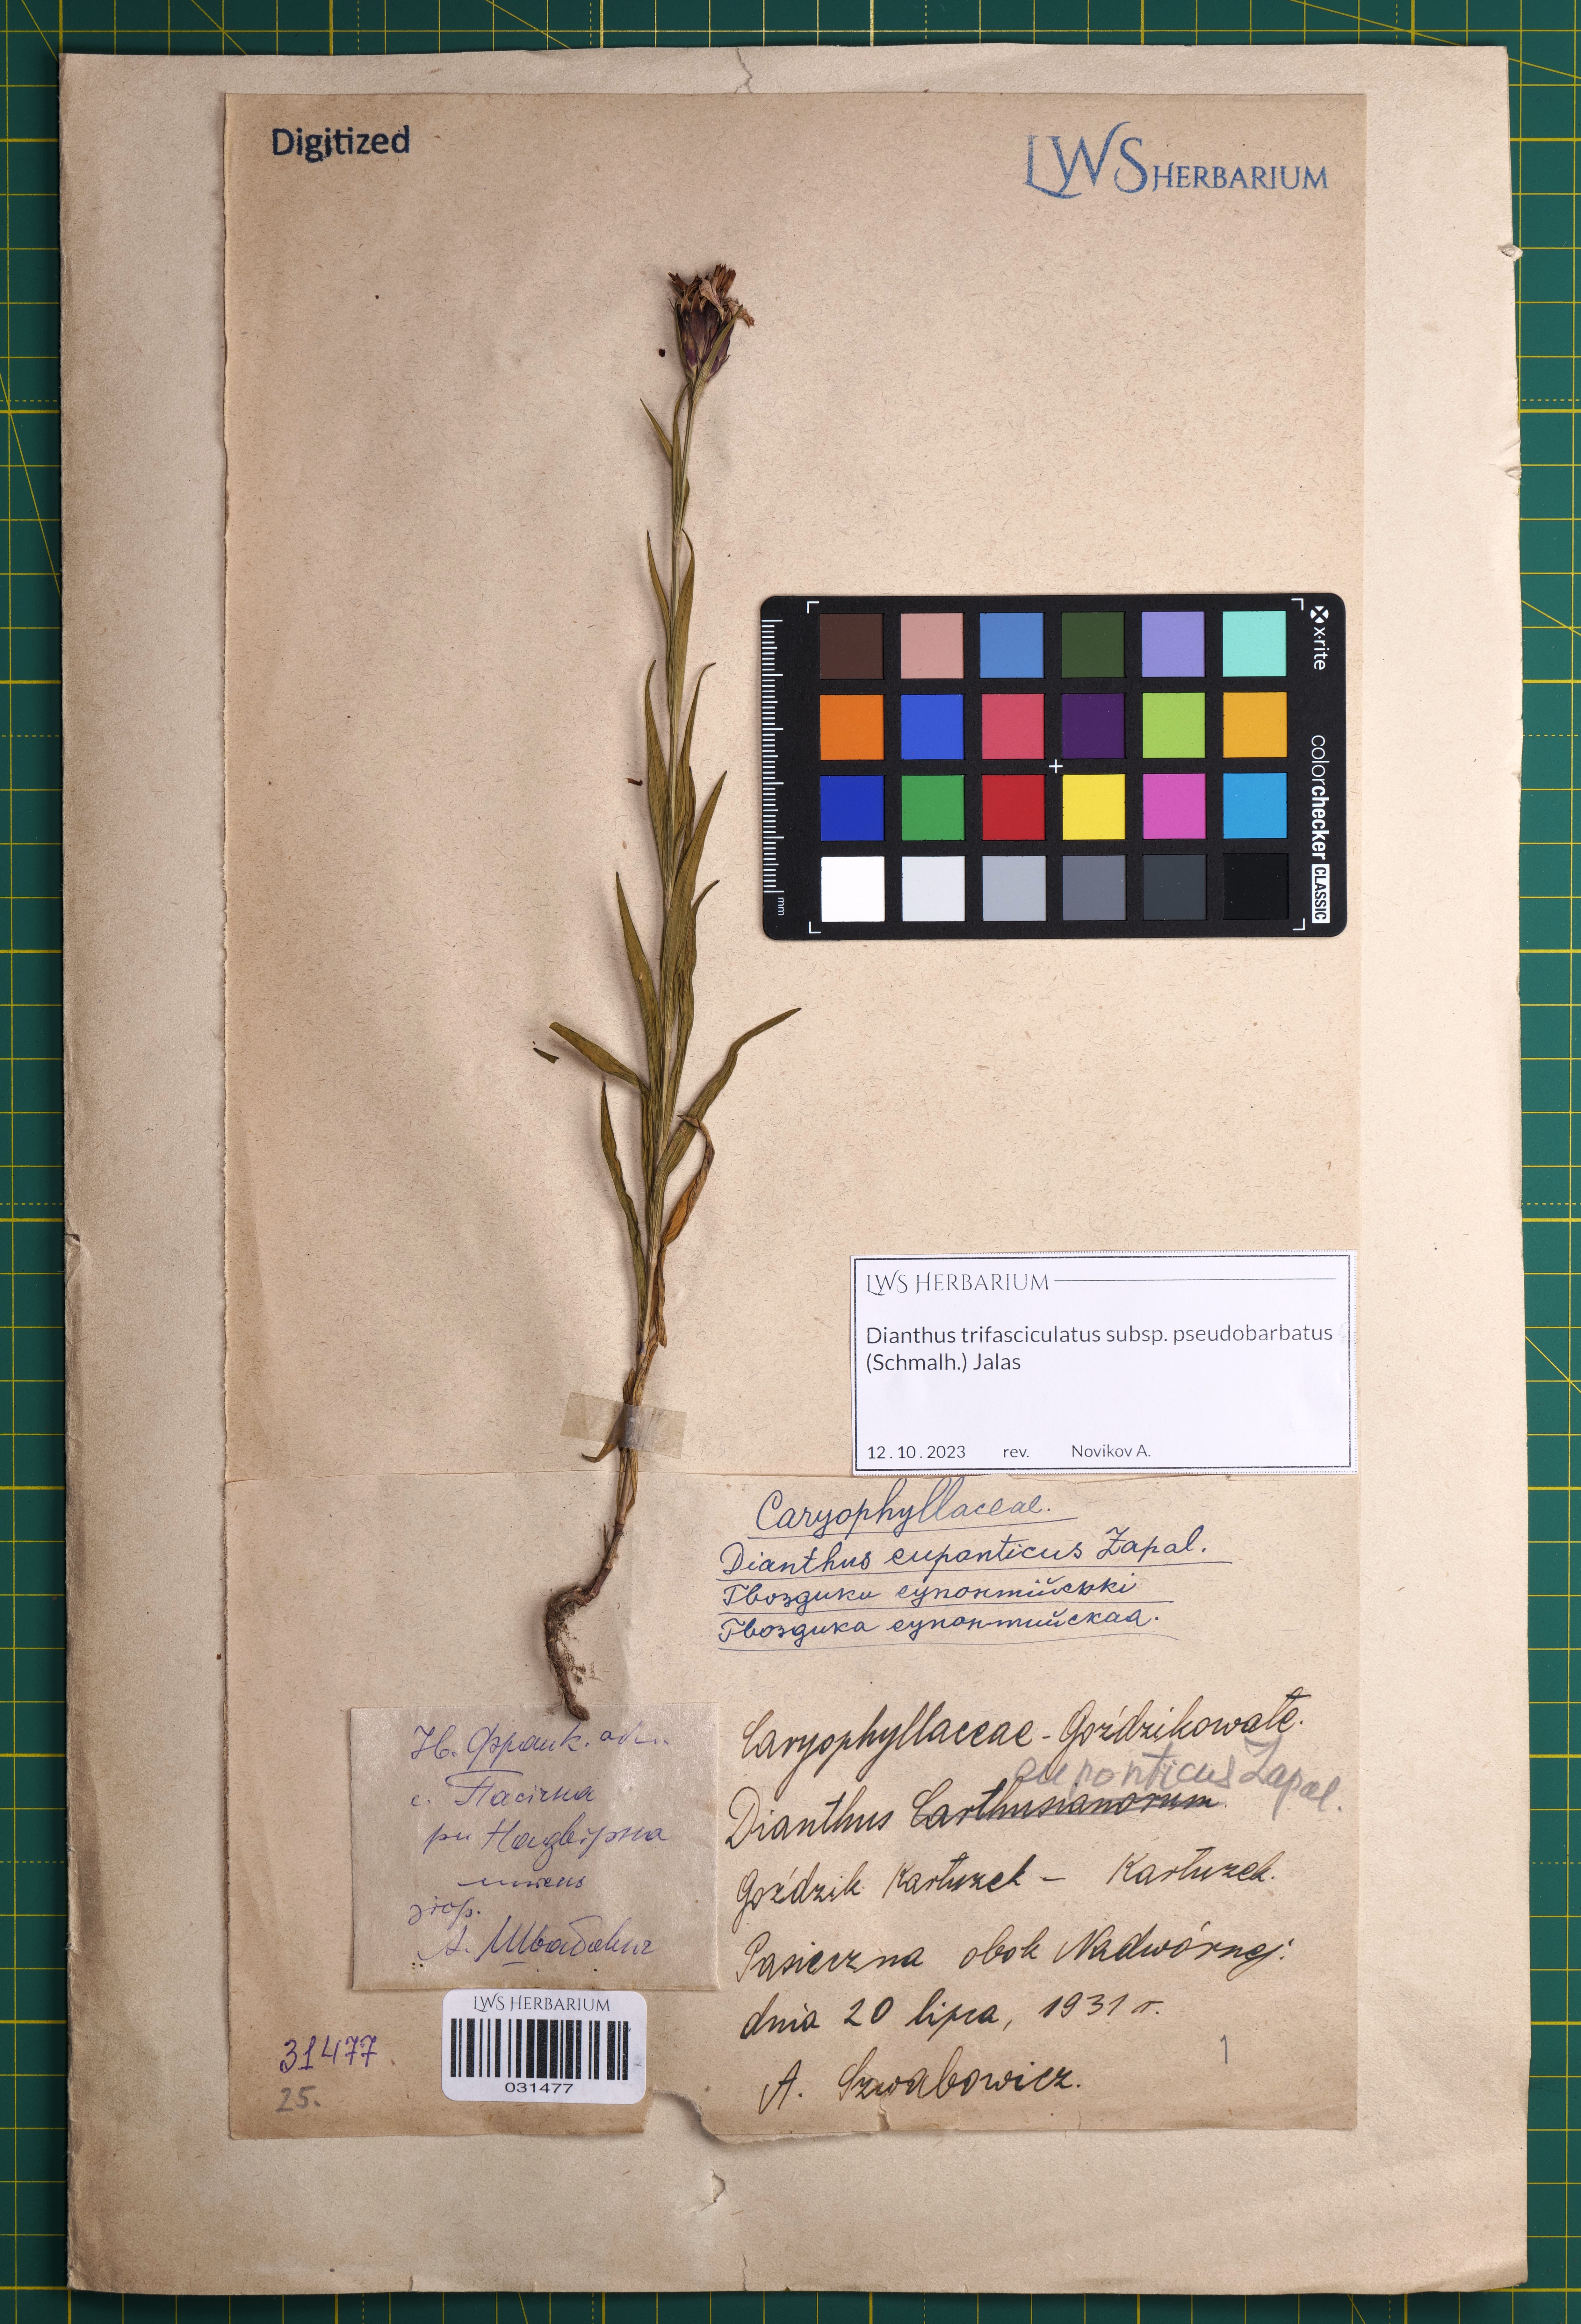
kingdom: Plantae
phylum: Tracheophyta
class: Magnoliopsida
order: Caryophyllales
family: Caryophyllaceae
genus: Dianthus
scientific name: Dianthus trifasciculatus
